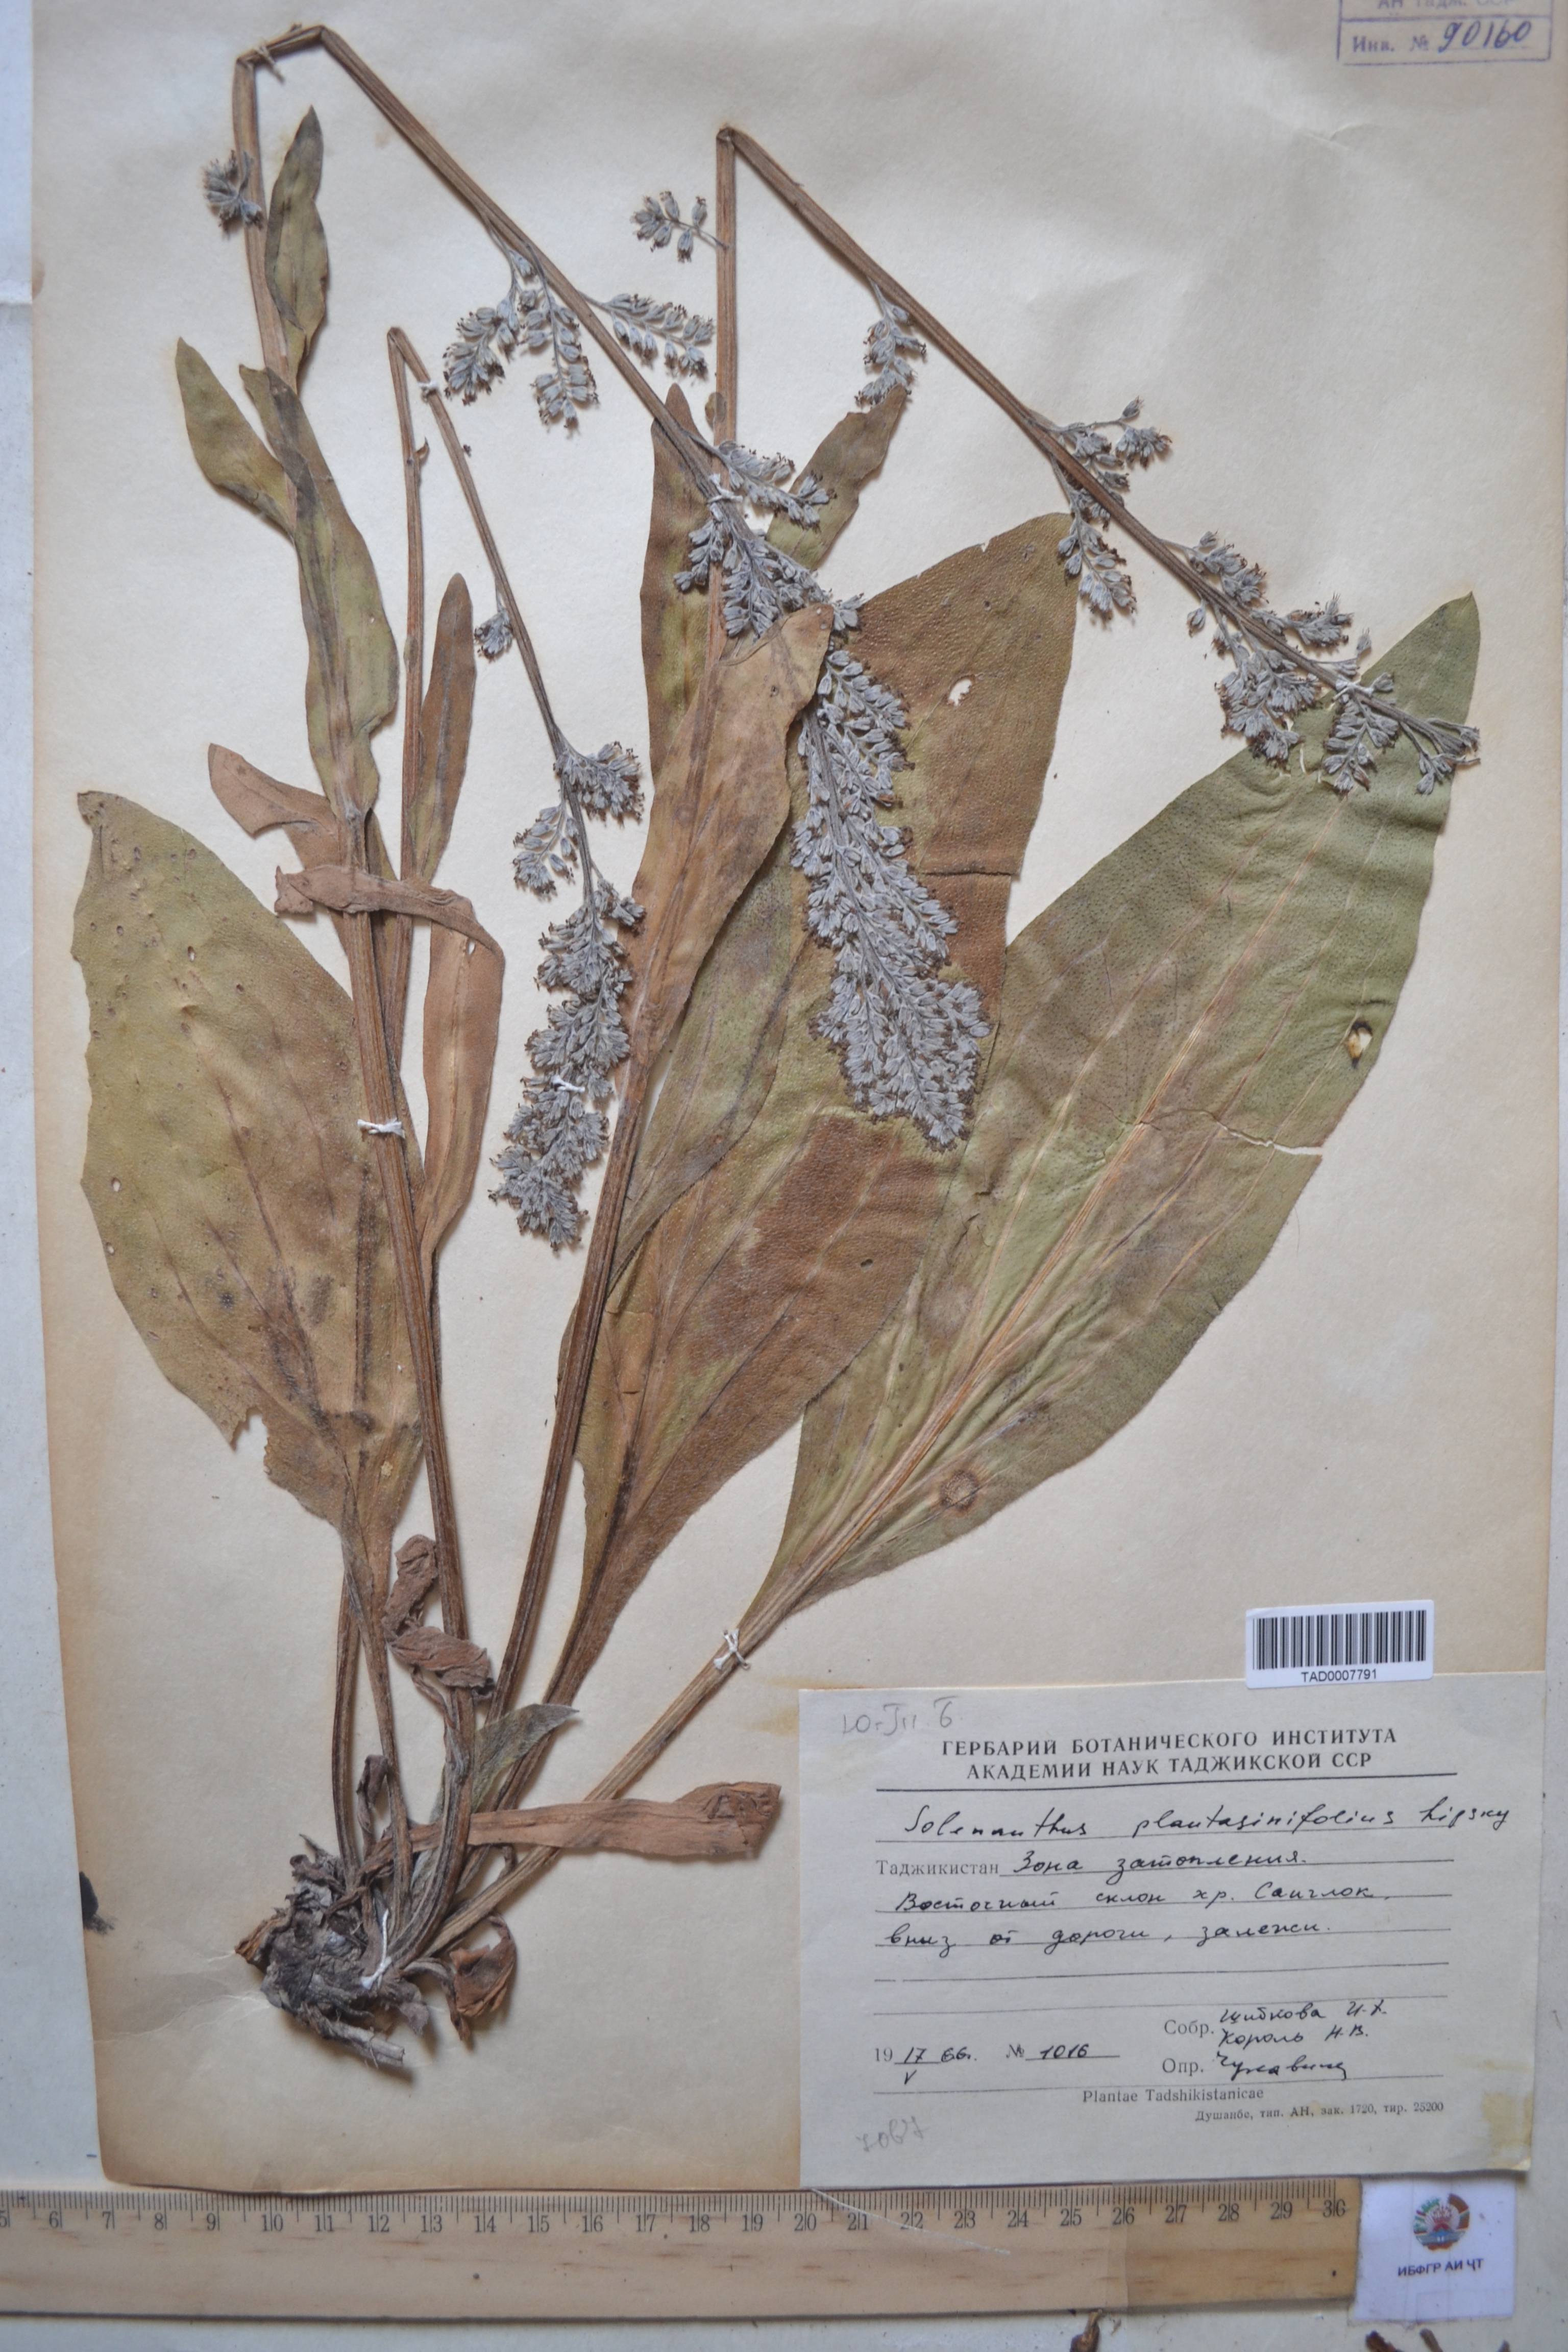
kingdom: Plantae
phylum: Tracheophyta
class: Magnoliopsida
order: Boraginales
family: Boraginaceae
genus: Solenanthus
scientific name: Solenanthus plantaginifolius
